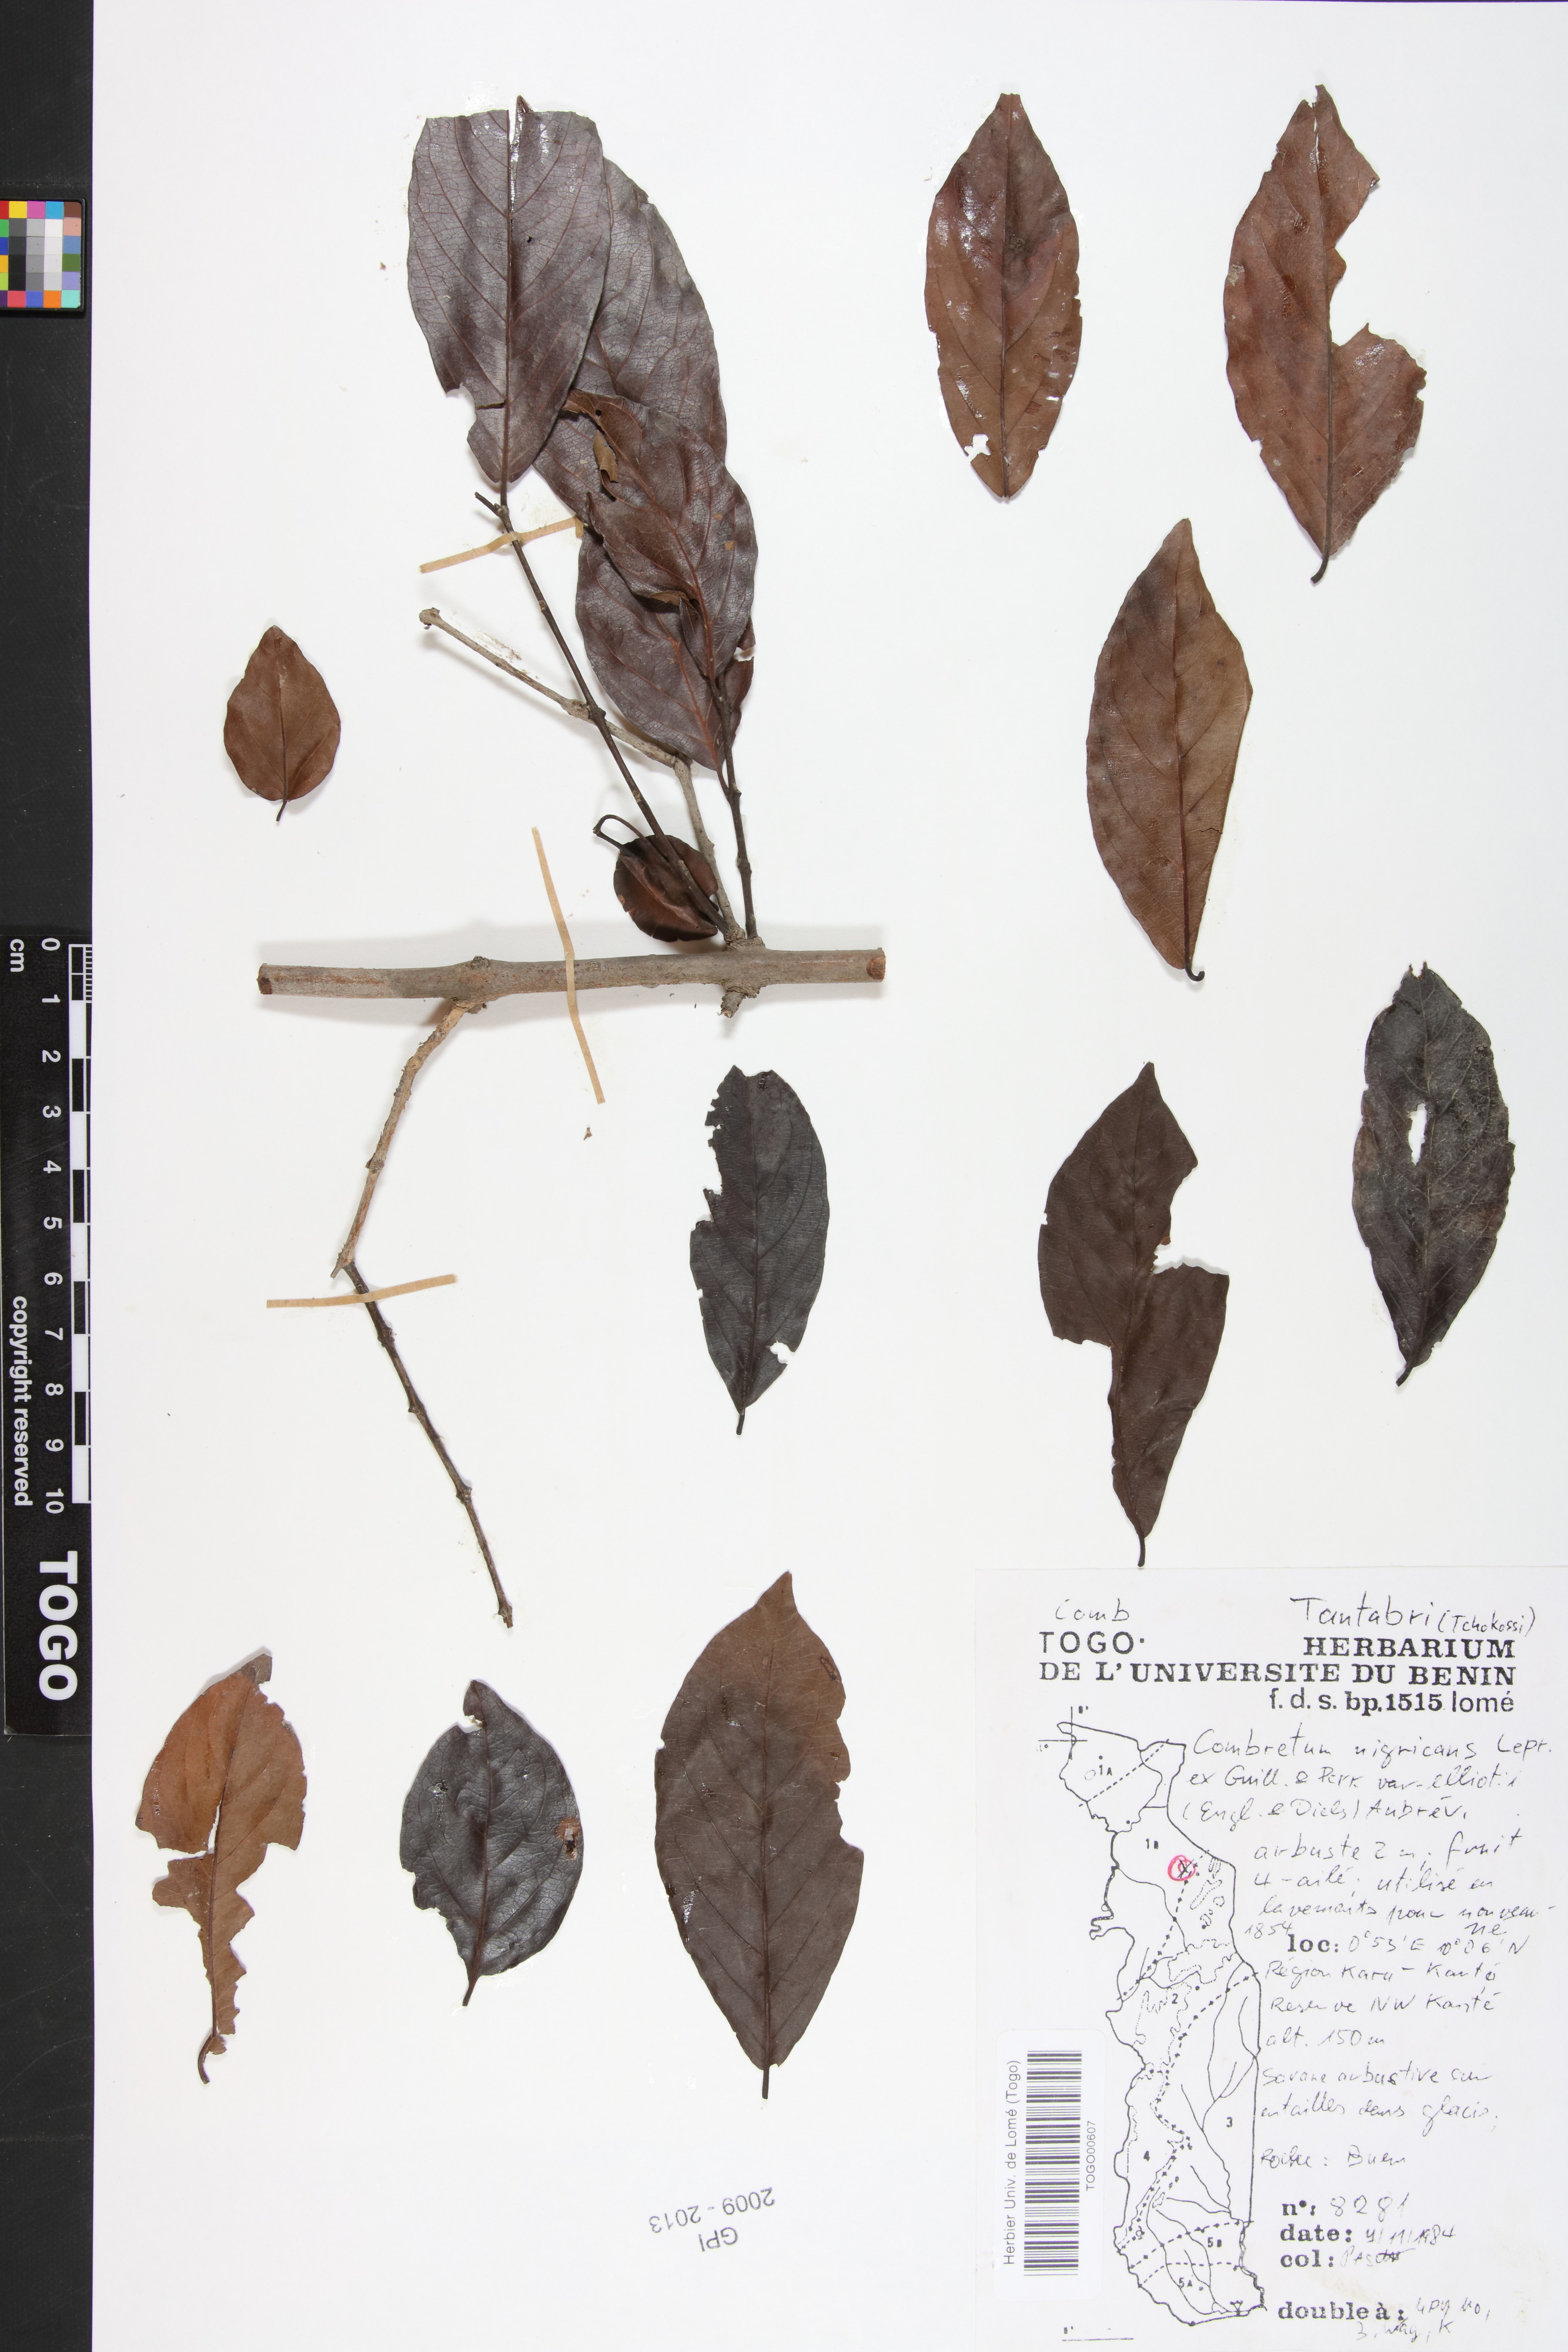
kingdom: Plantae
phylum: Tracheophyta
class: Magnoliopsida
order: Myrtales
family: Combretaceae
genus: Combretum
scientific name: Combretum nigricans
